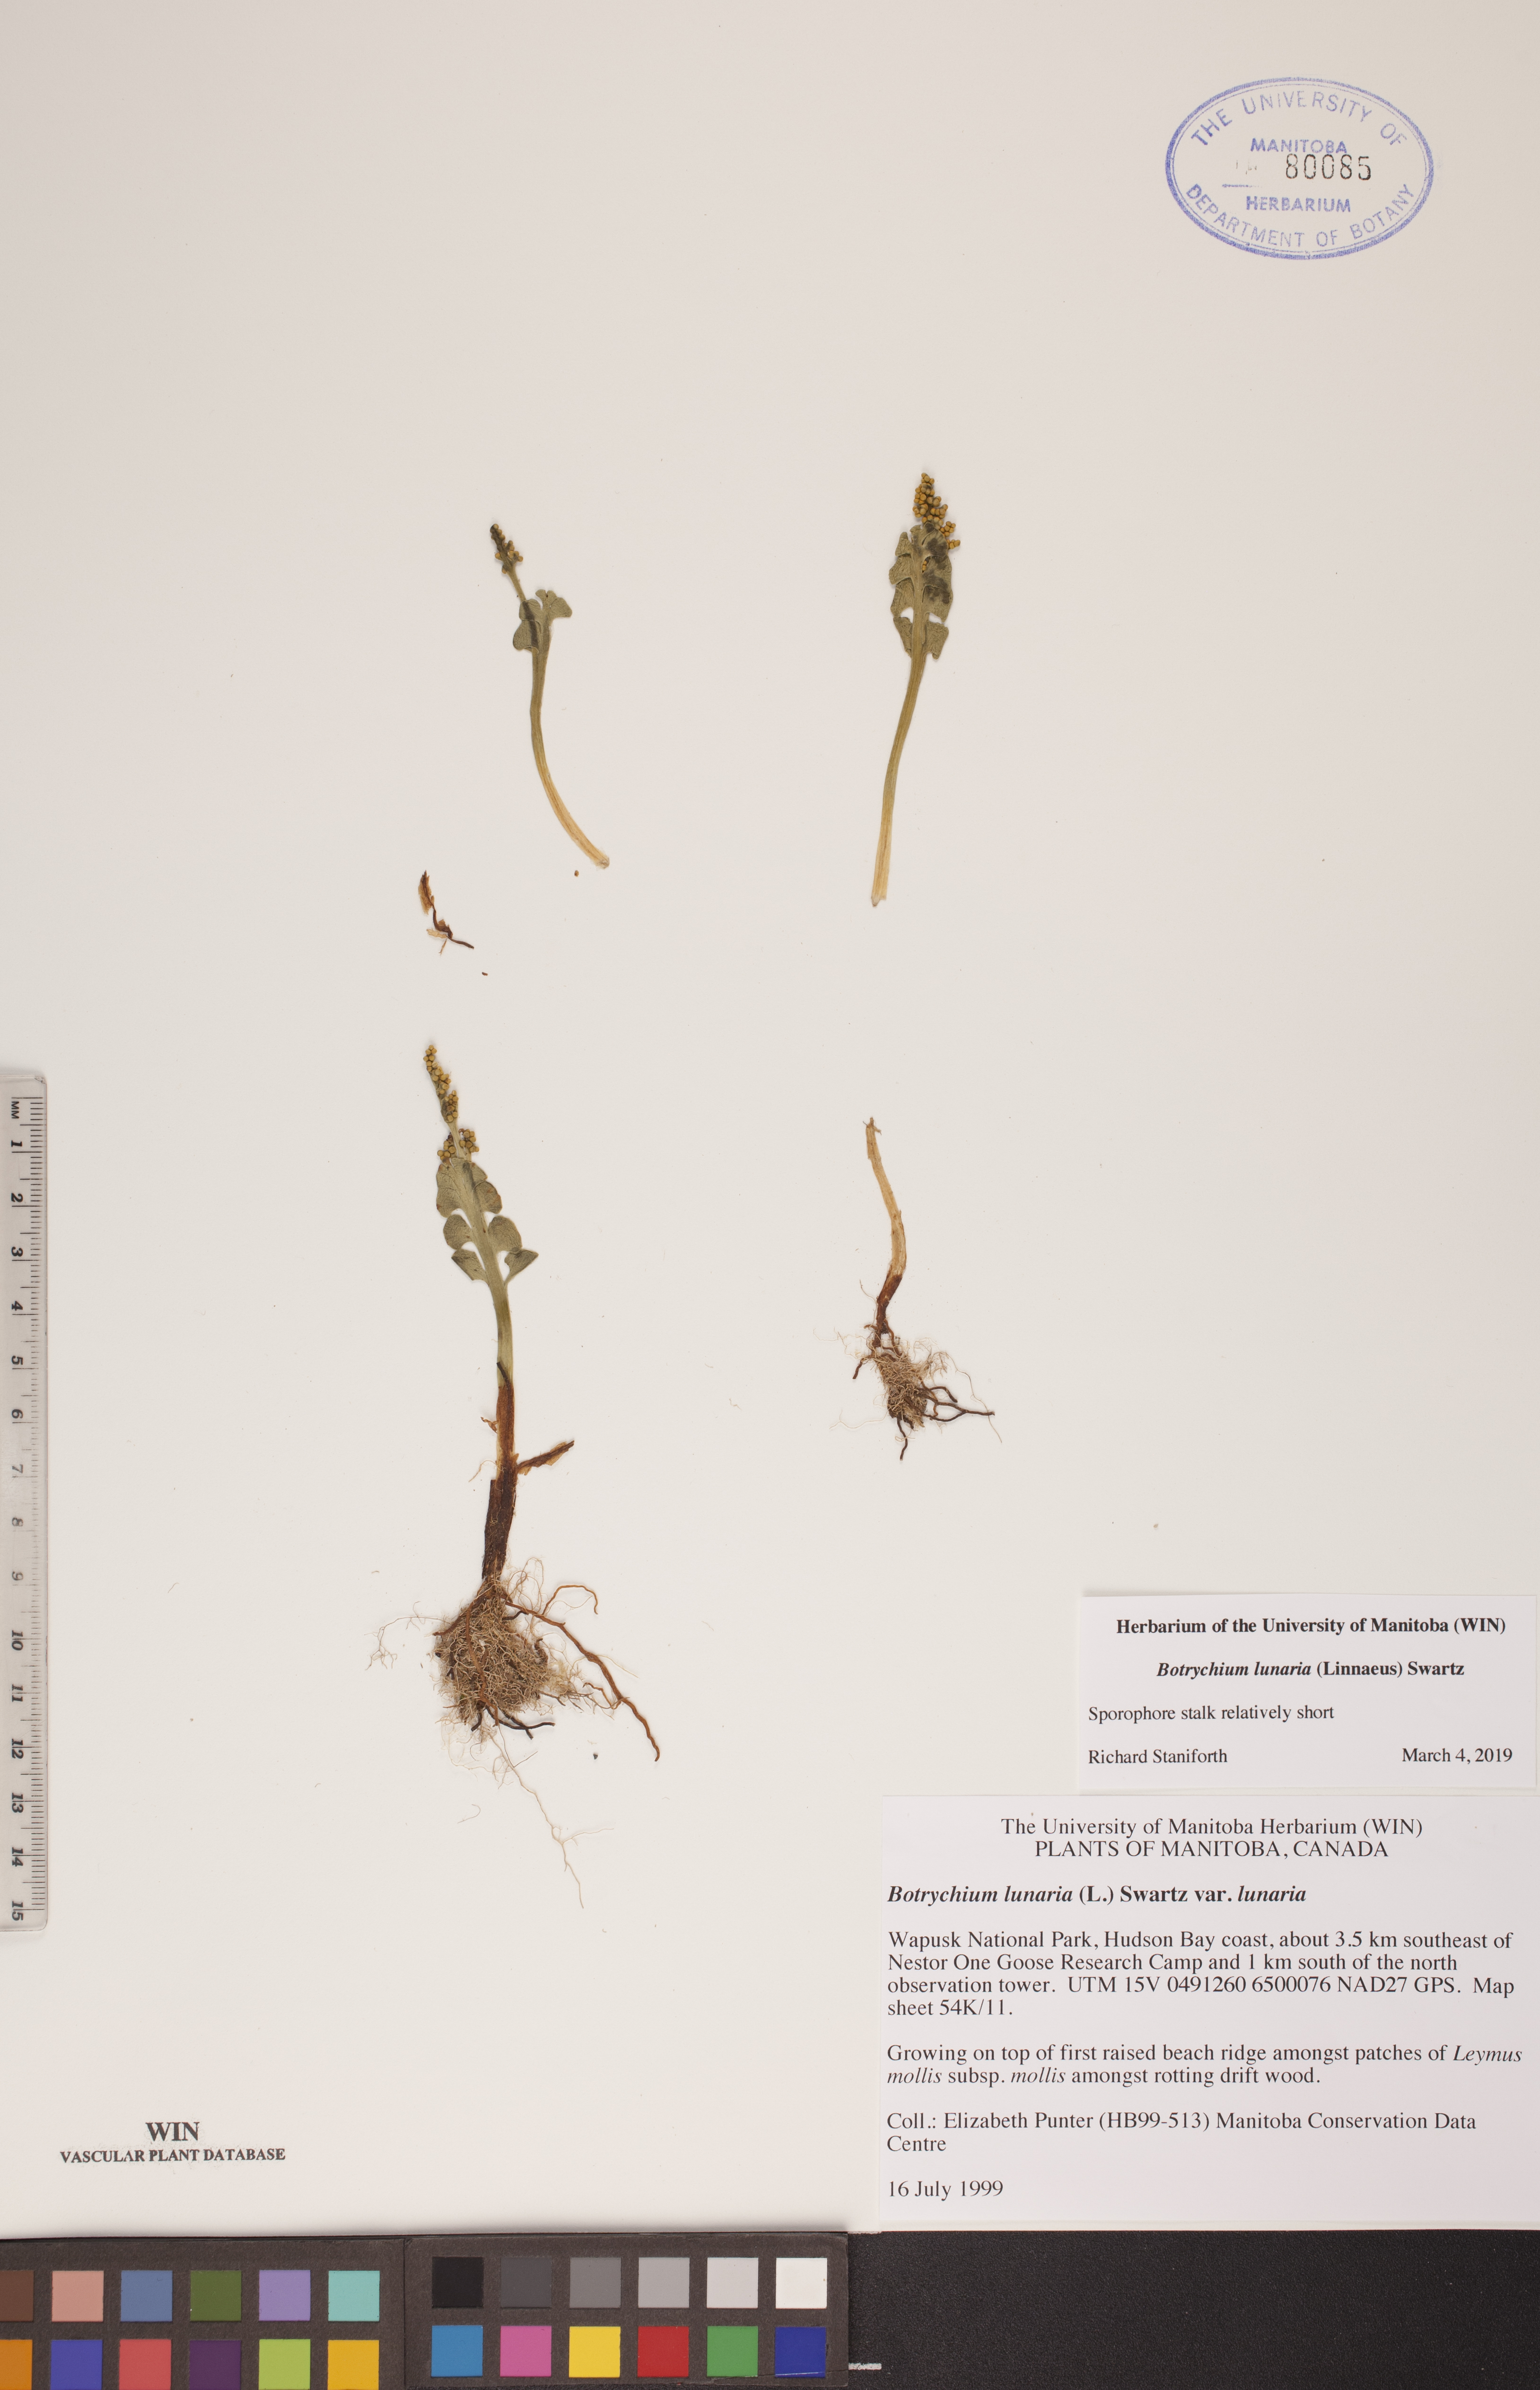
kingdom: Plantae
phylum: Tracheophyta
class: Polypodiopsida
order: Ophioglossales
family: Ophioglossaceae
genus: Botrychium
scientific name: Botrychium lunaria
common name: Moonwort
